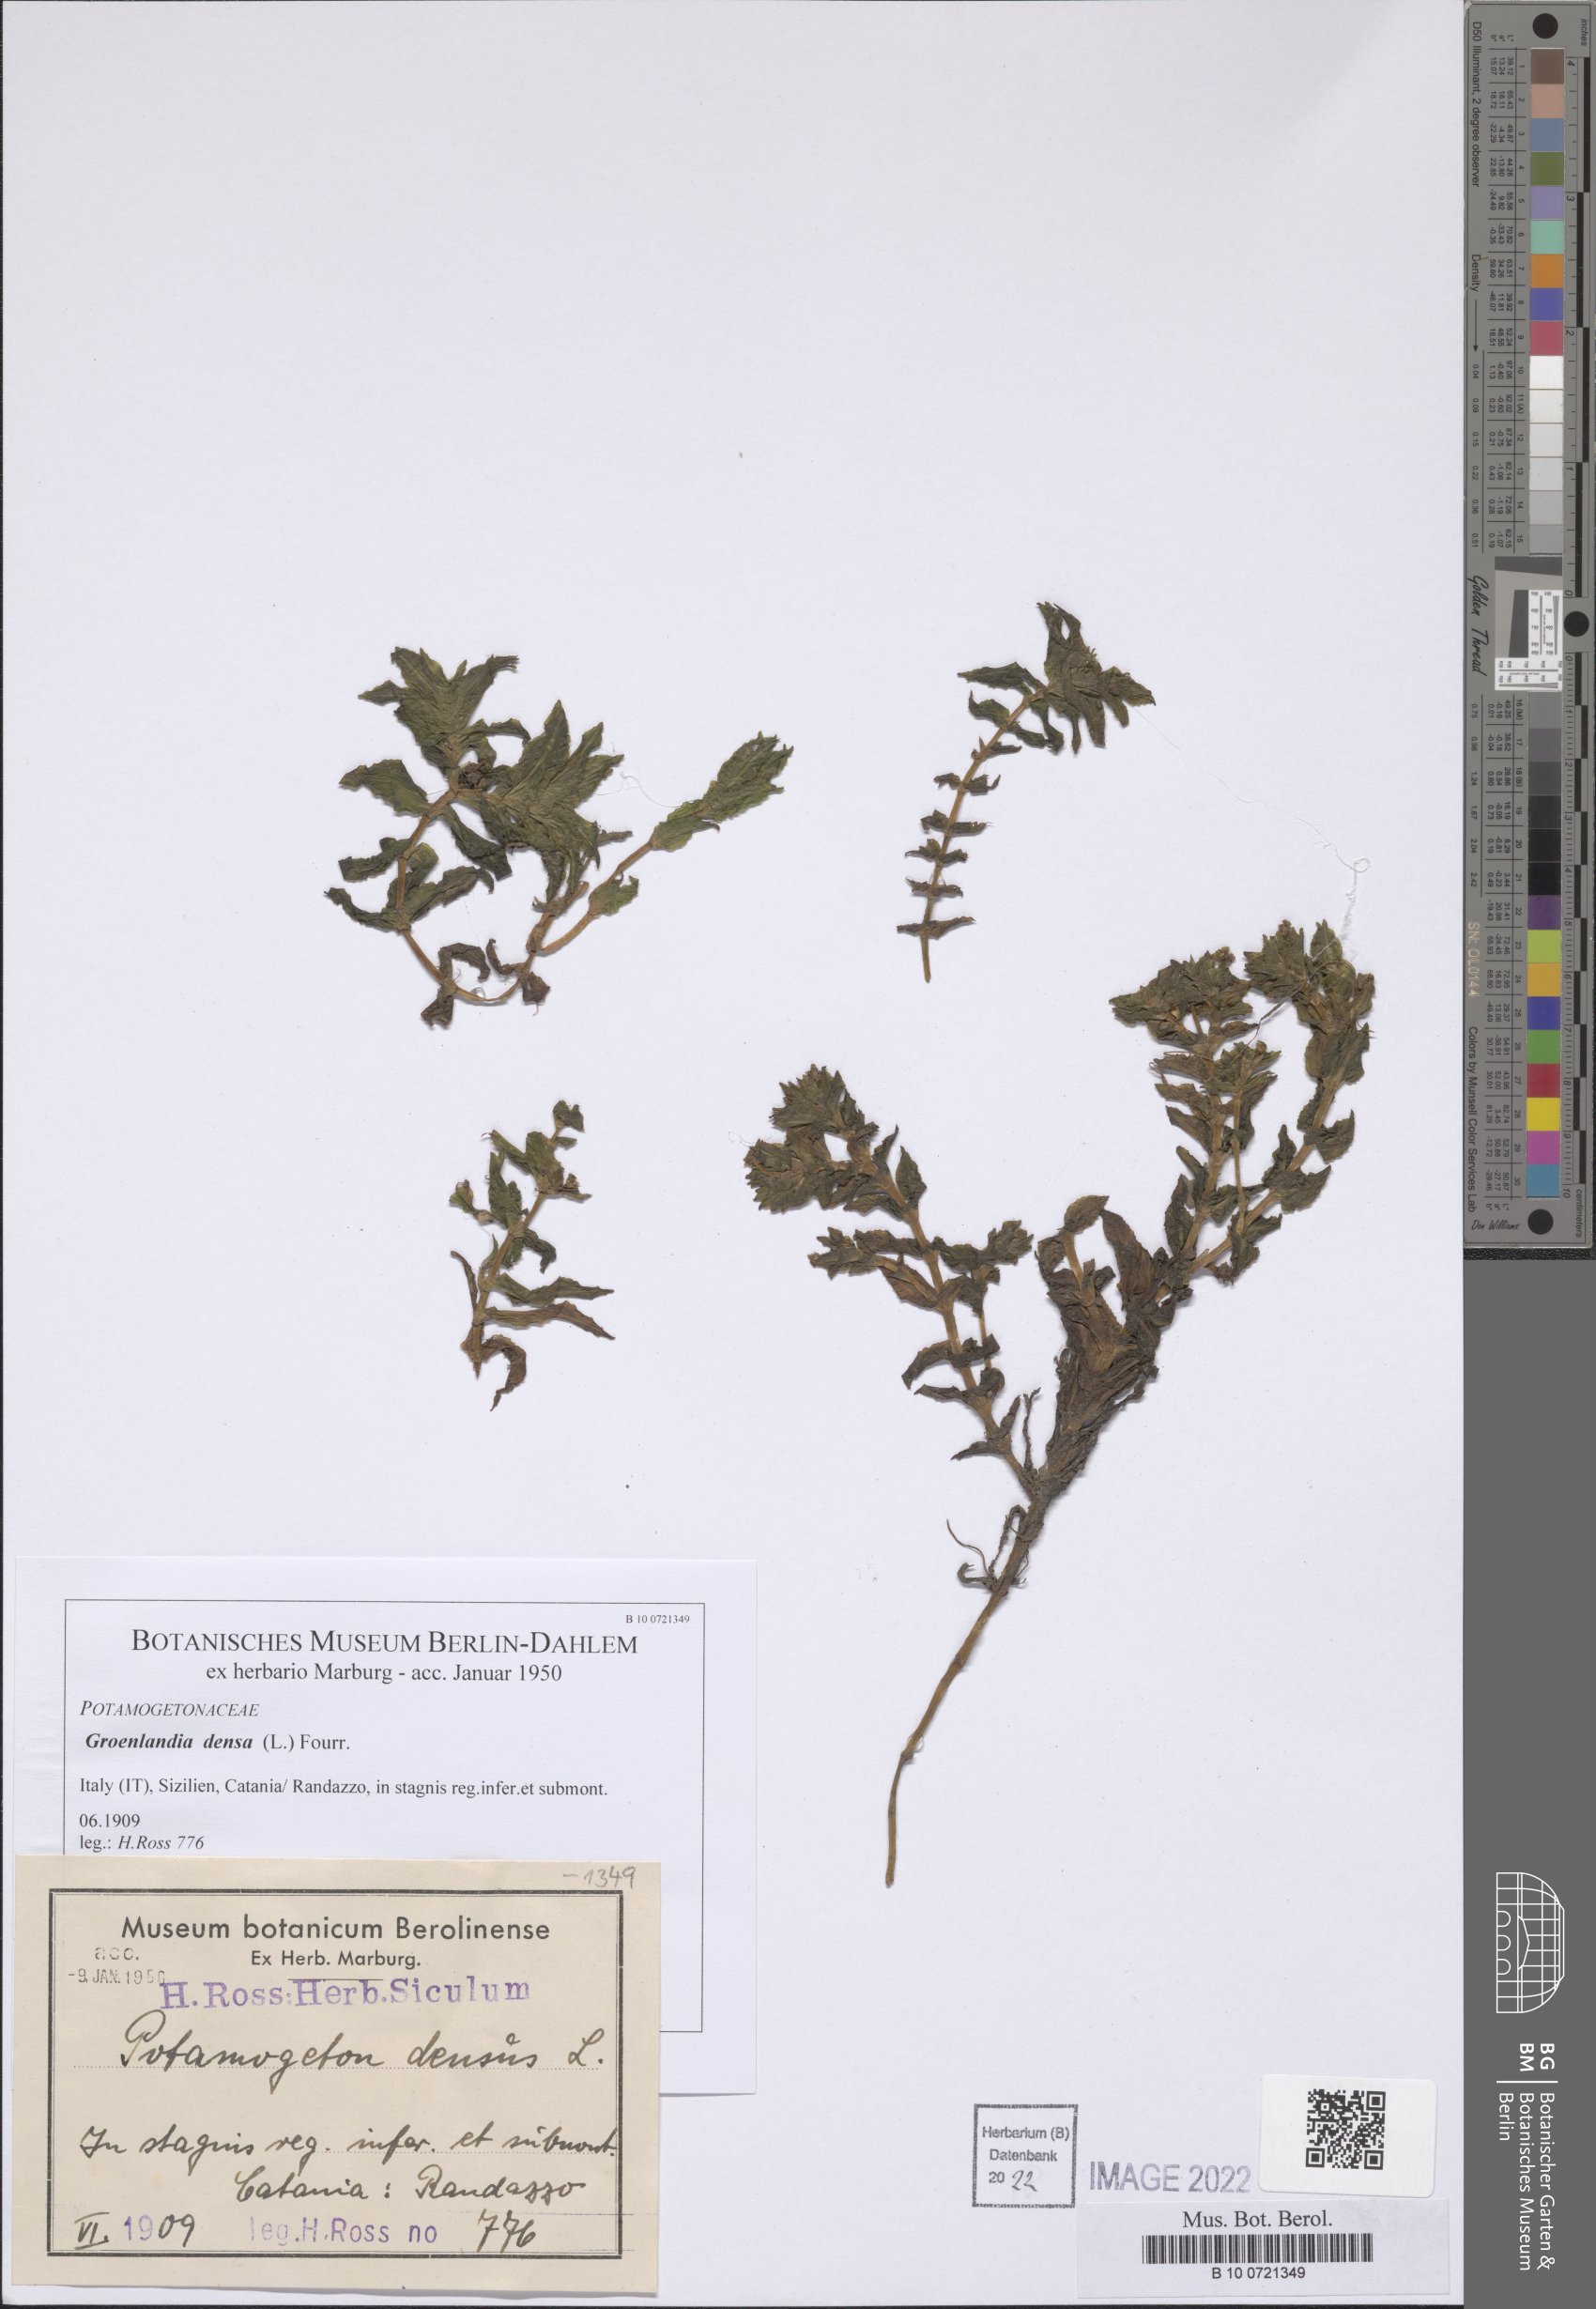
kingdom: Plantae
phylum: Tracheophyta
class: Liliopsida
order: Alismatales
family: Potamogetonaceae
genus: Groenlandia
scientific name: Groenlandia densa
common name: Opposite-leaved pondweed
